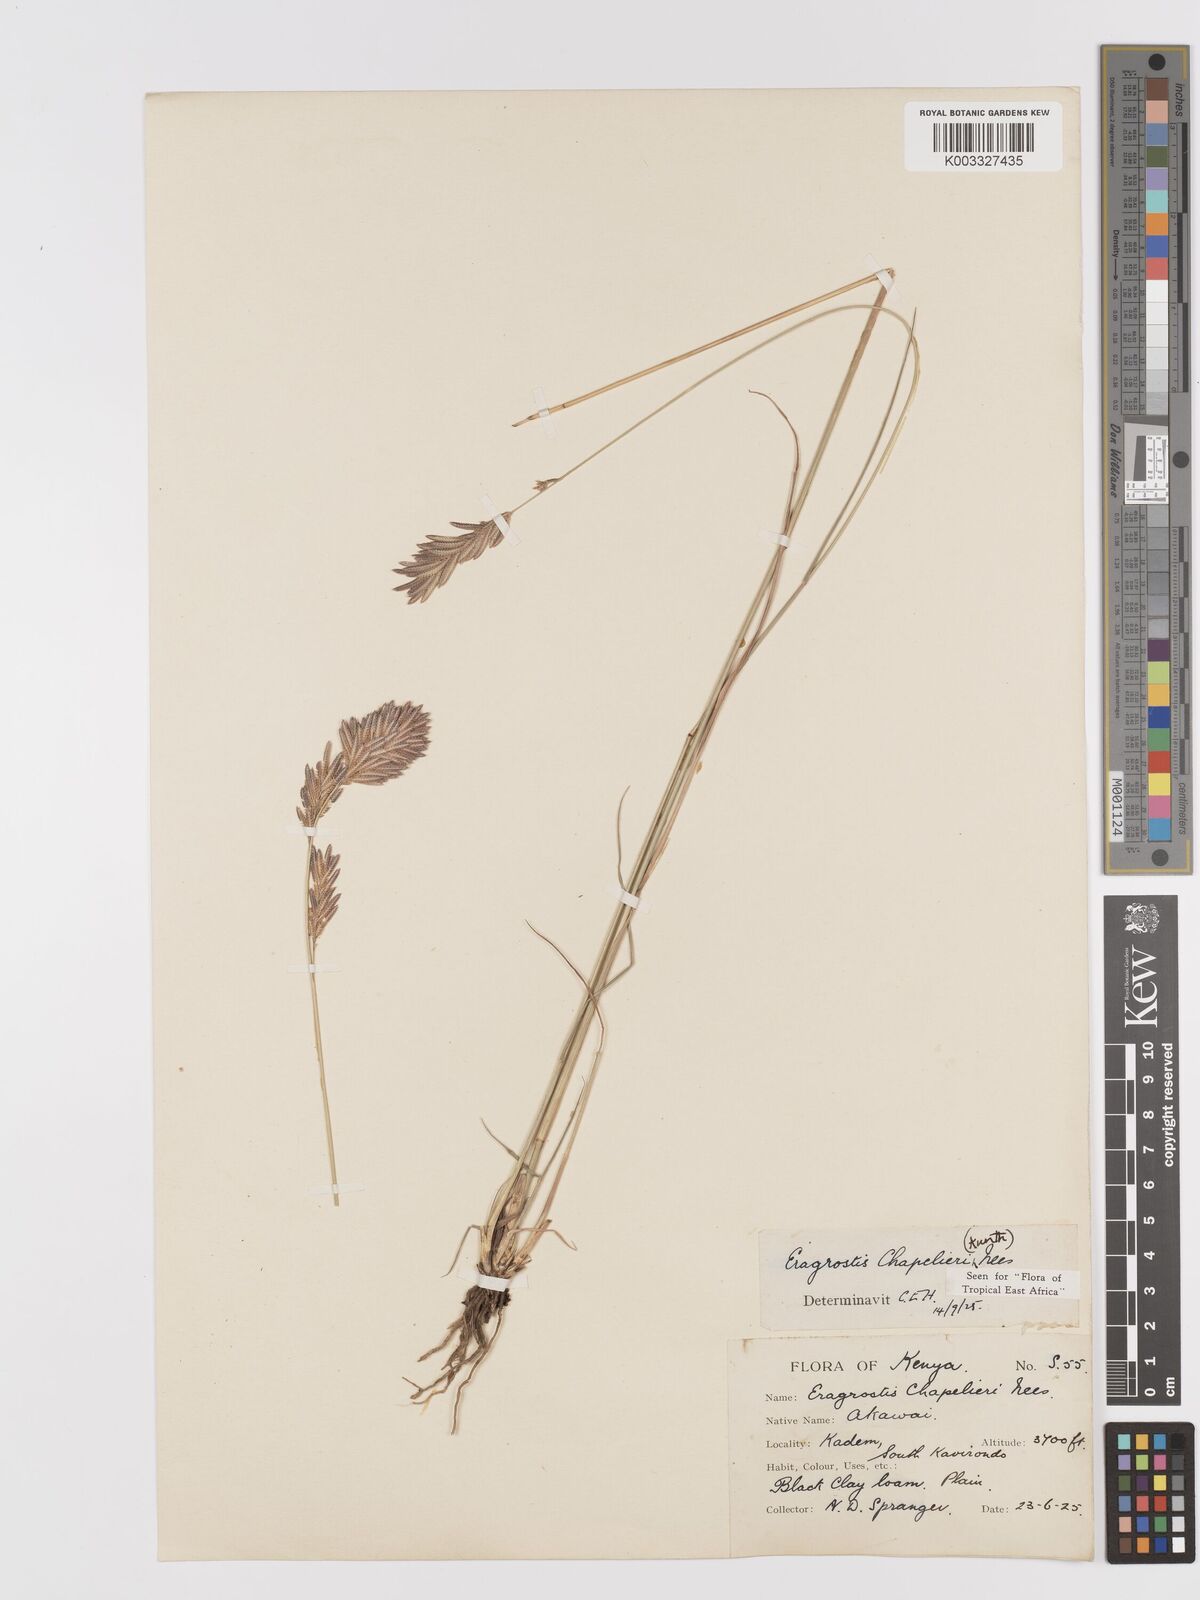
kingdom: Plantae
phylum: Tracheophyta
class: Liliopsida
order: Poales
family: Poaceae
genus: Eragrostis
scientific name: Eragrostis chapelieri
